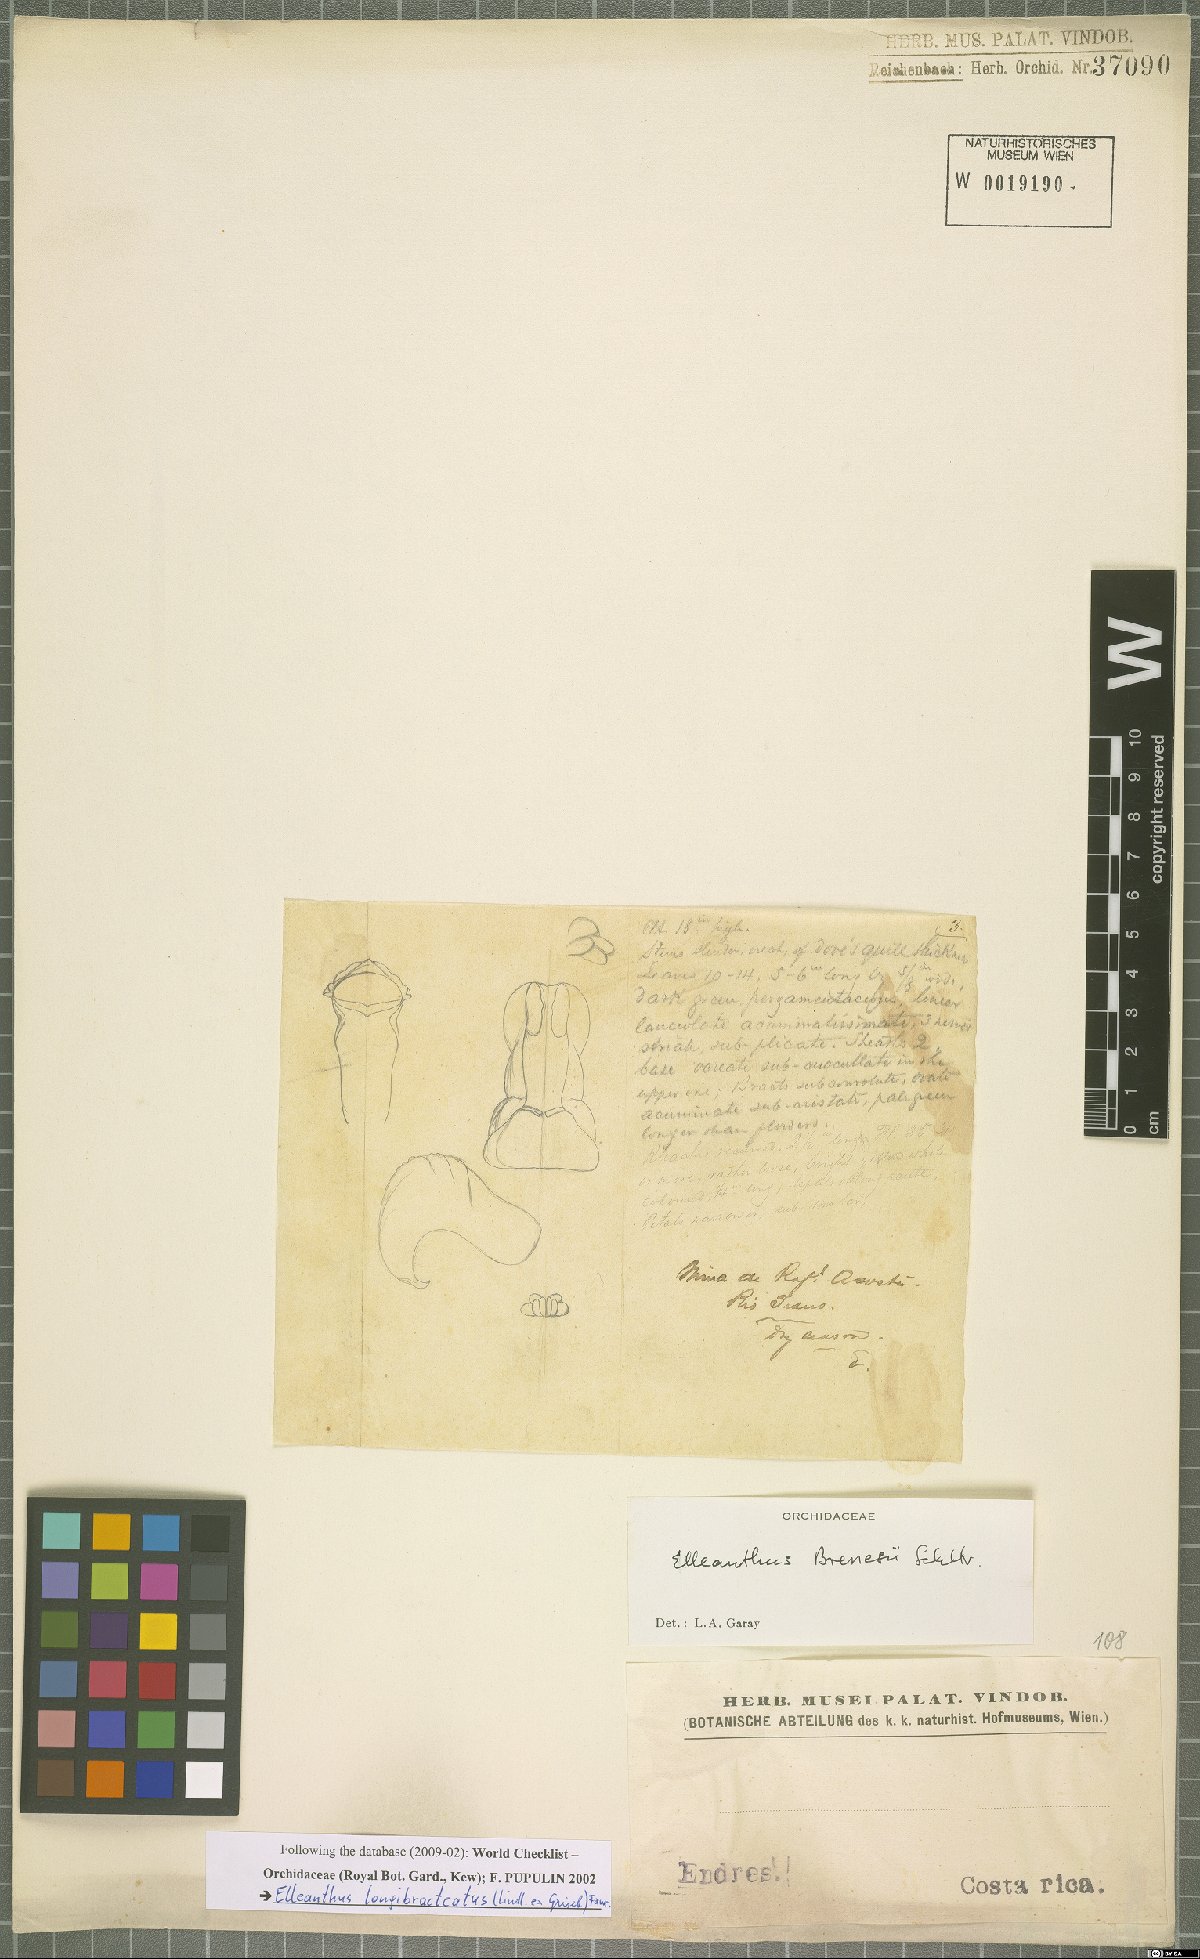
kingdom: Plantae
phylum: Tracheophyta
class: Liliopsida
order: Asparagales
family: Orchidaceae
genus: Elleanthus
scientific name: Elleanthus longibracteatus
